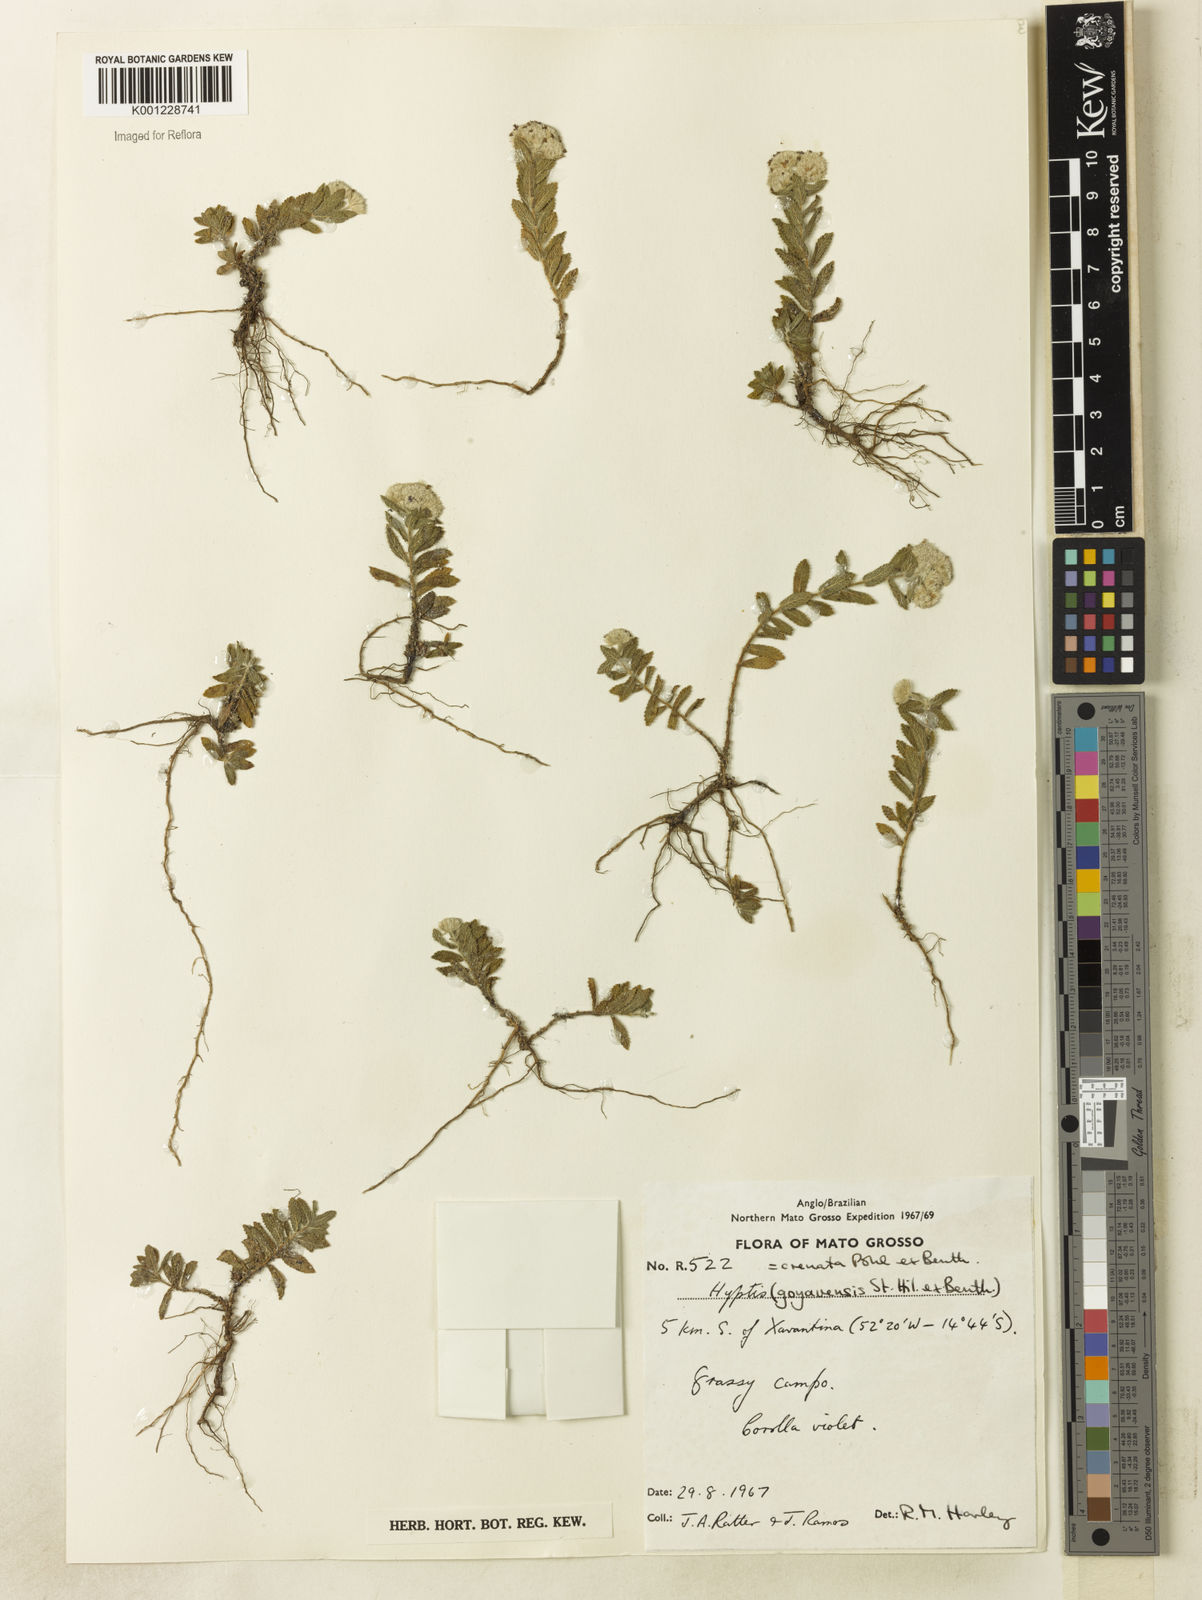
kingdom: Plantae
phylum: Tracheophyta
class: Magnoliopsida
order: Lamiales
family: Lamiaceae
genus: Hyptis
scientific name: Hyptis crenata
